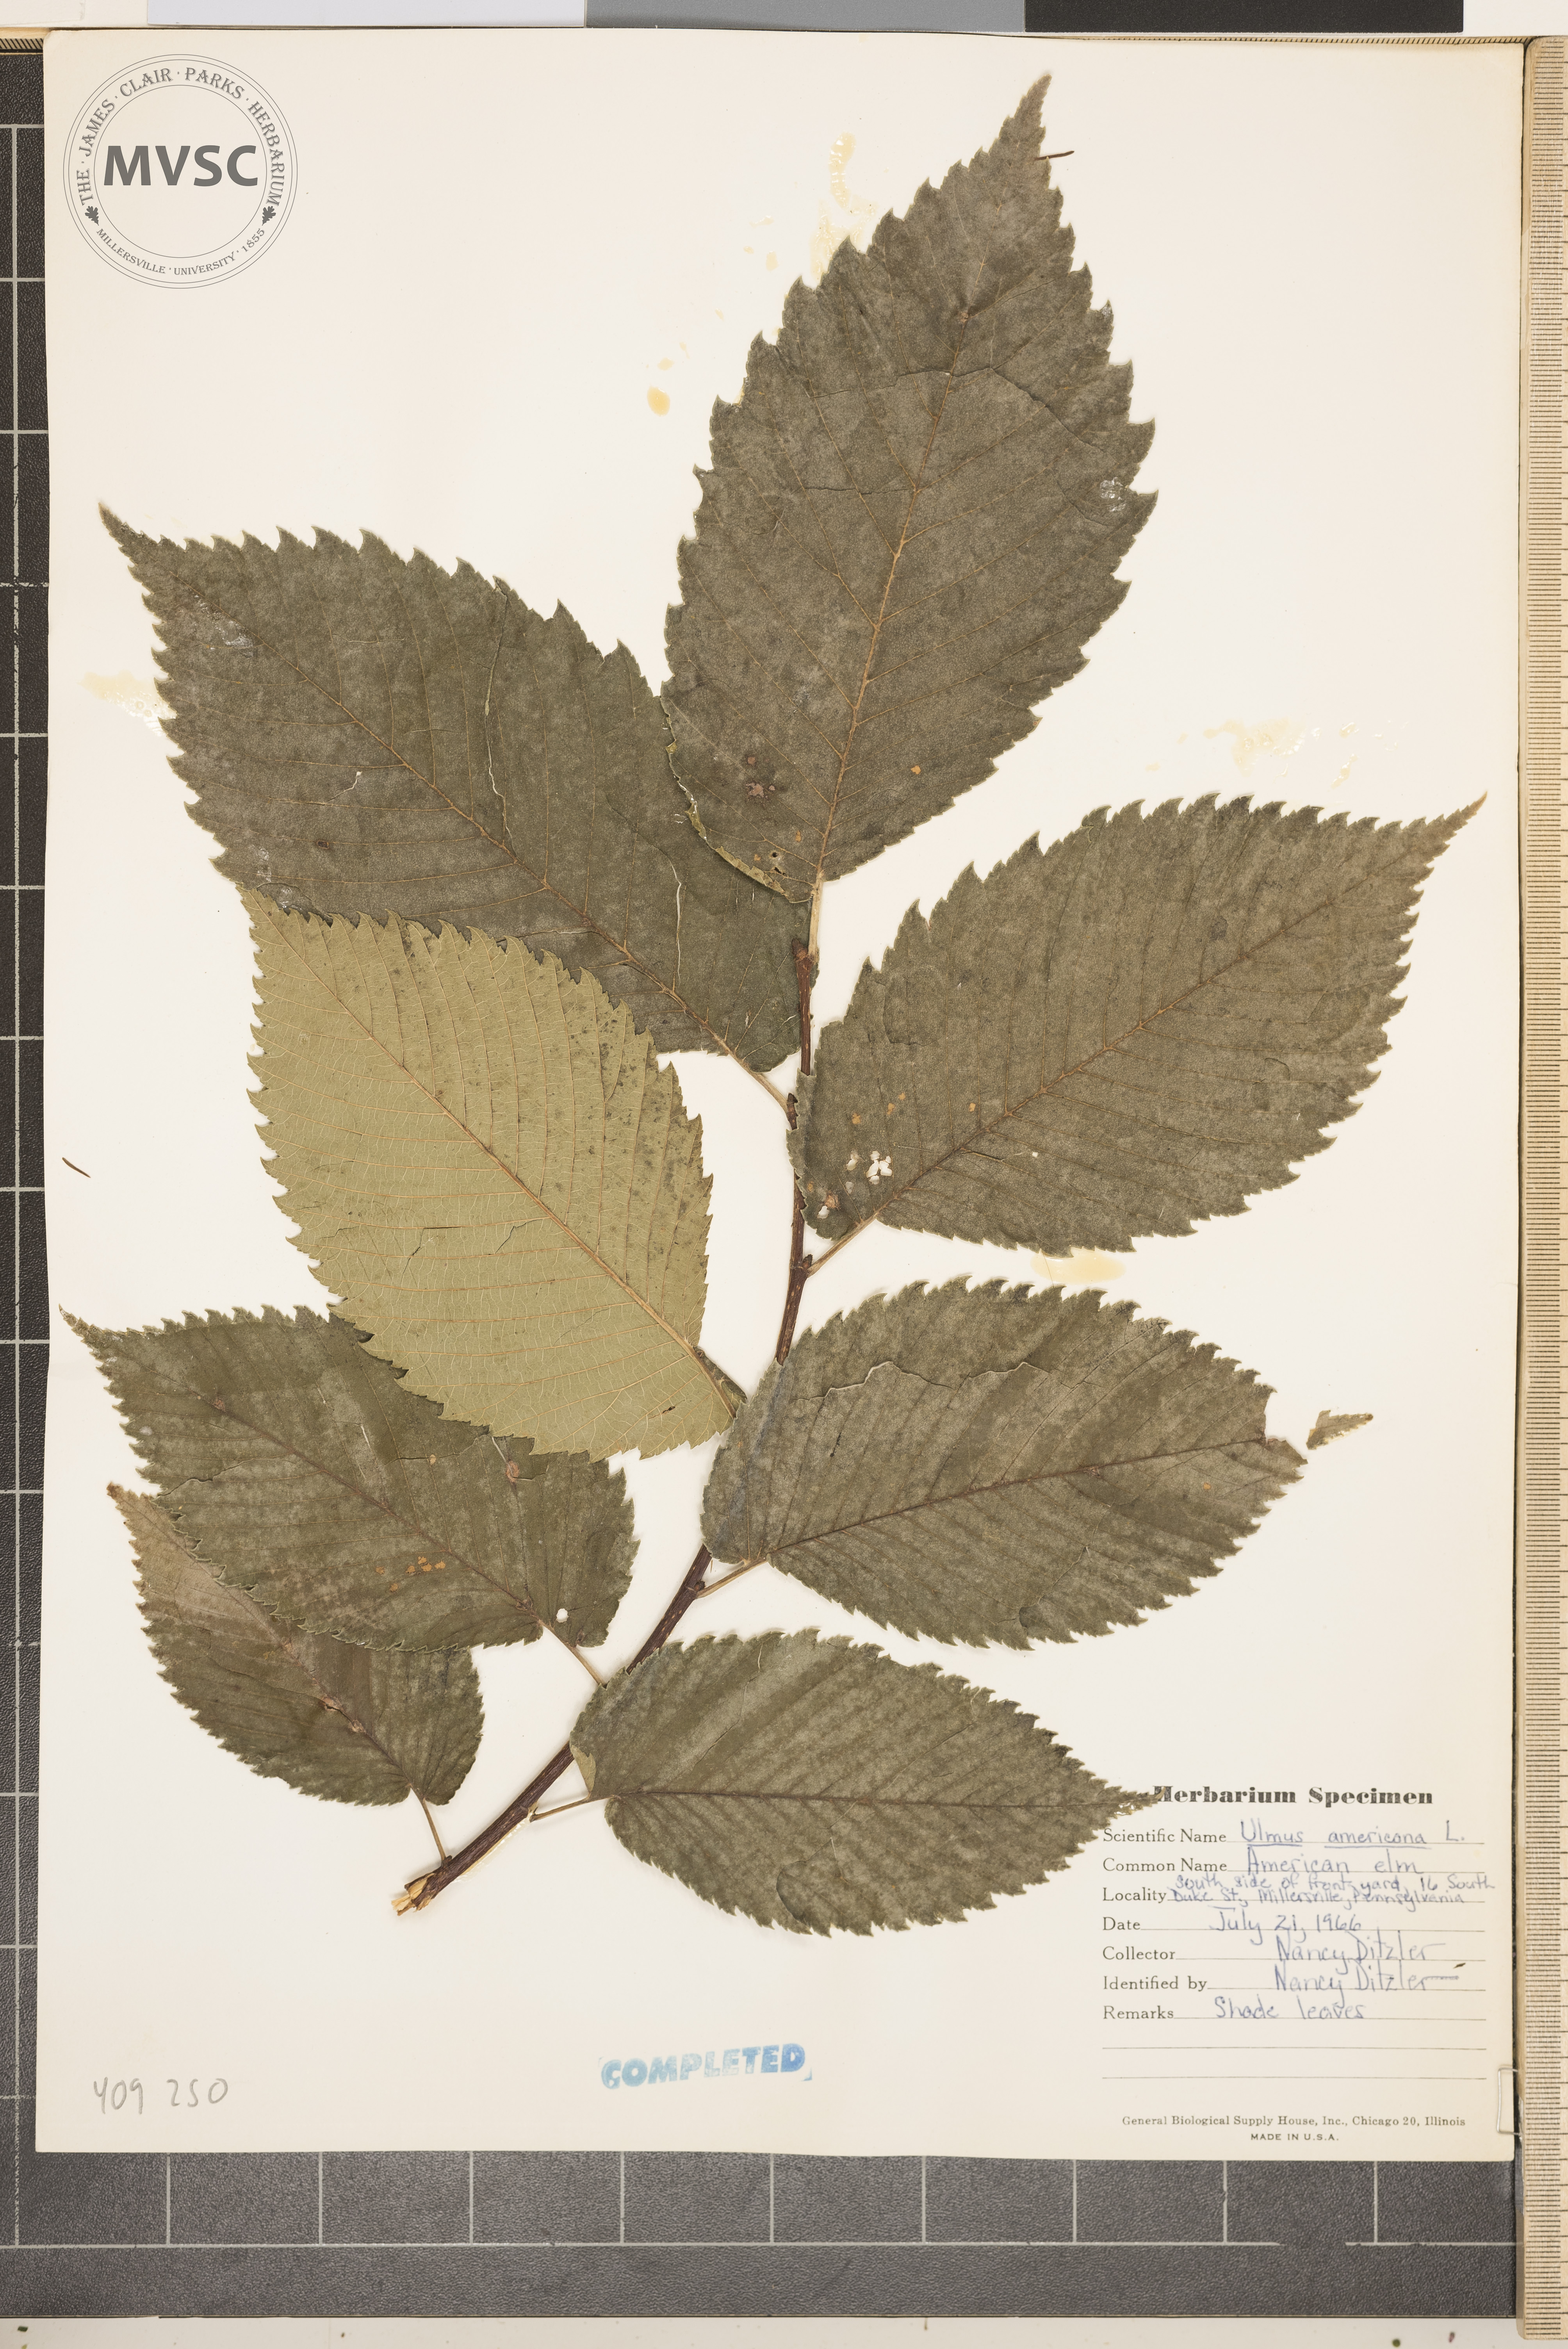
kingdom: Plantae
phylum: Tracheophyta
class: Magnoliopsida
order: Rosales
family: Ulmaceae
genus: Ulmus
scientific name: Ulmus americana
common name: American elm
